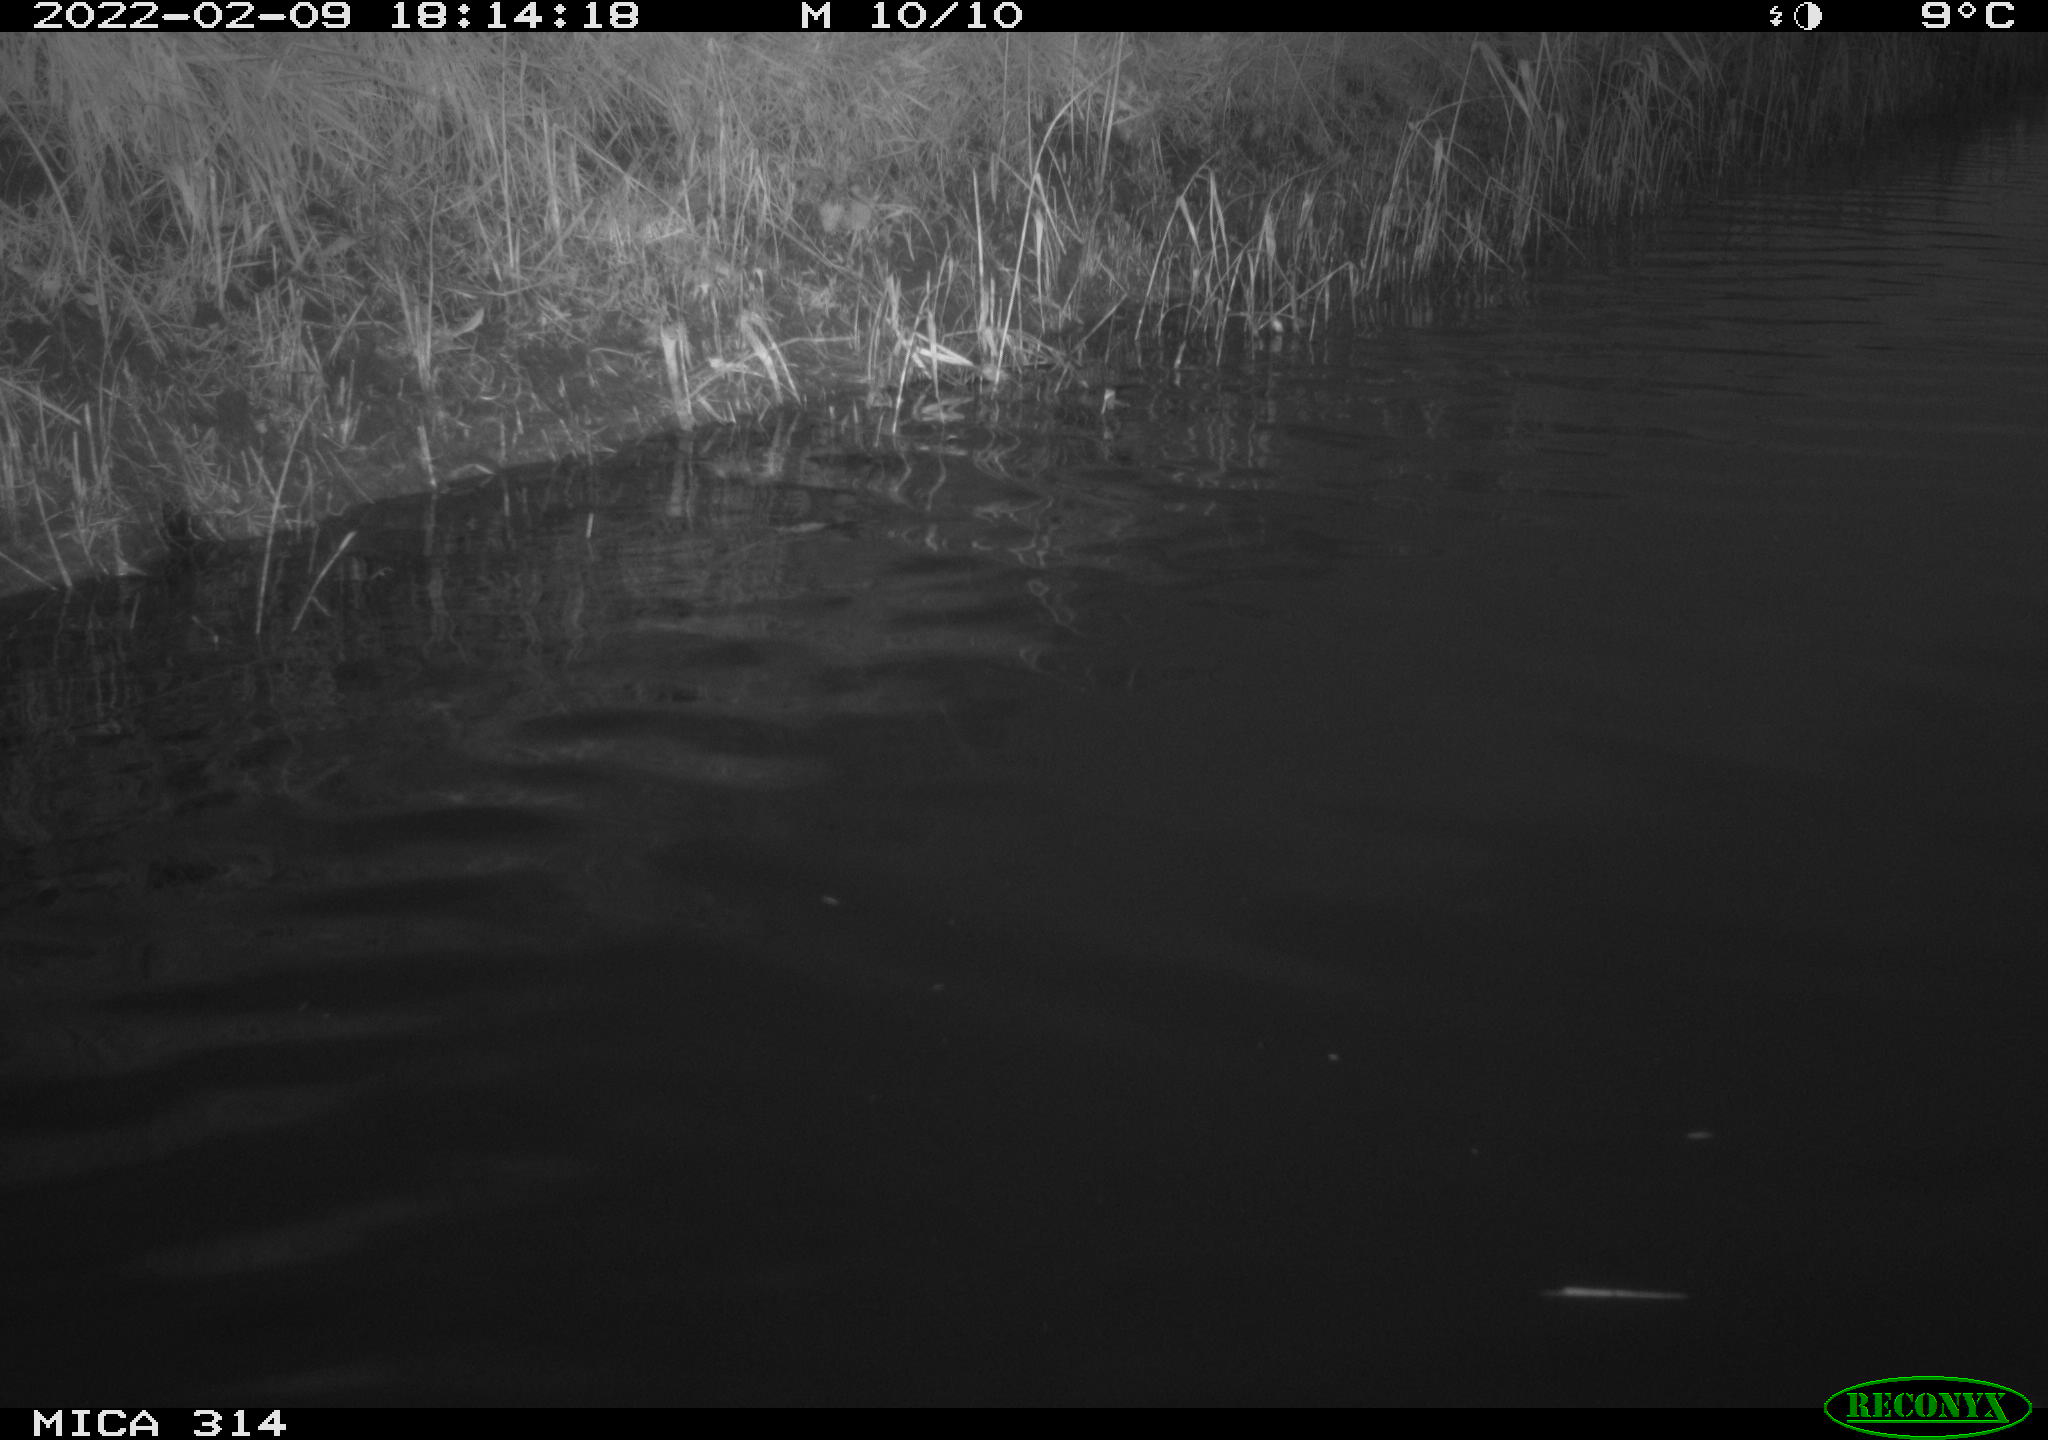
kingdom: Animalia
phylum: Chordata
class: Aves
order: Gruiformes
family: Rallidae
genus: Gallinula
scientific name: Gallinula chloropus
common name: Common moorhen
